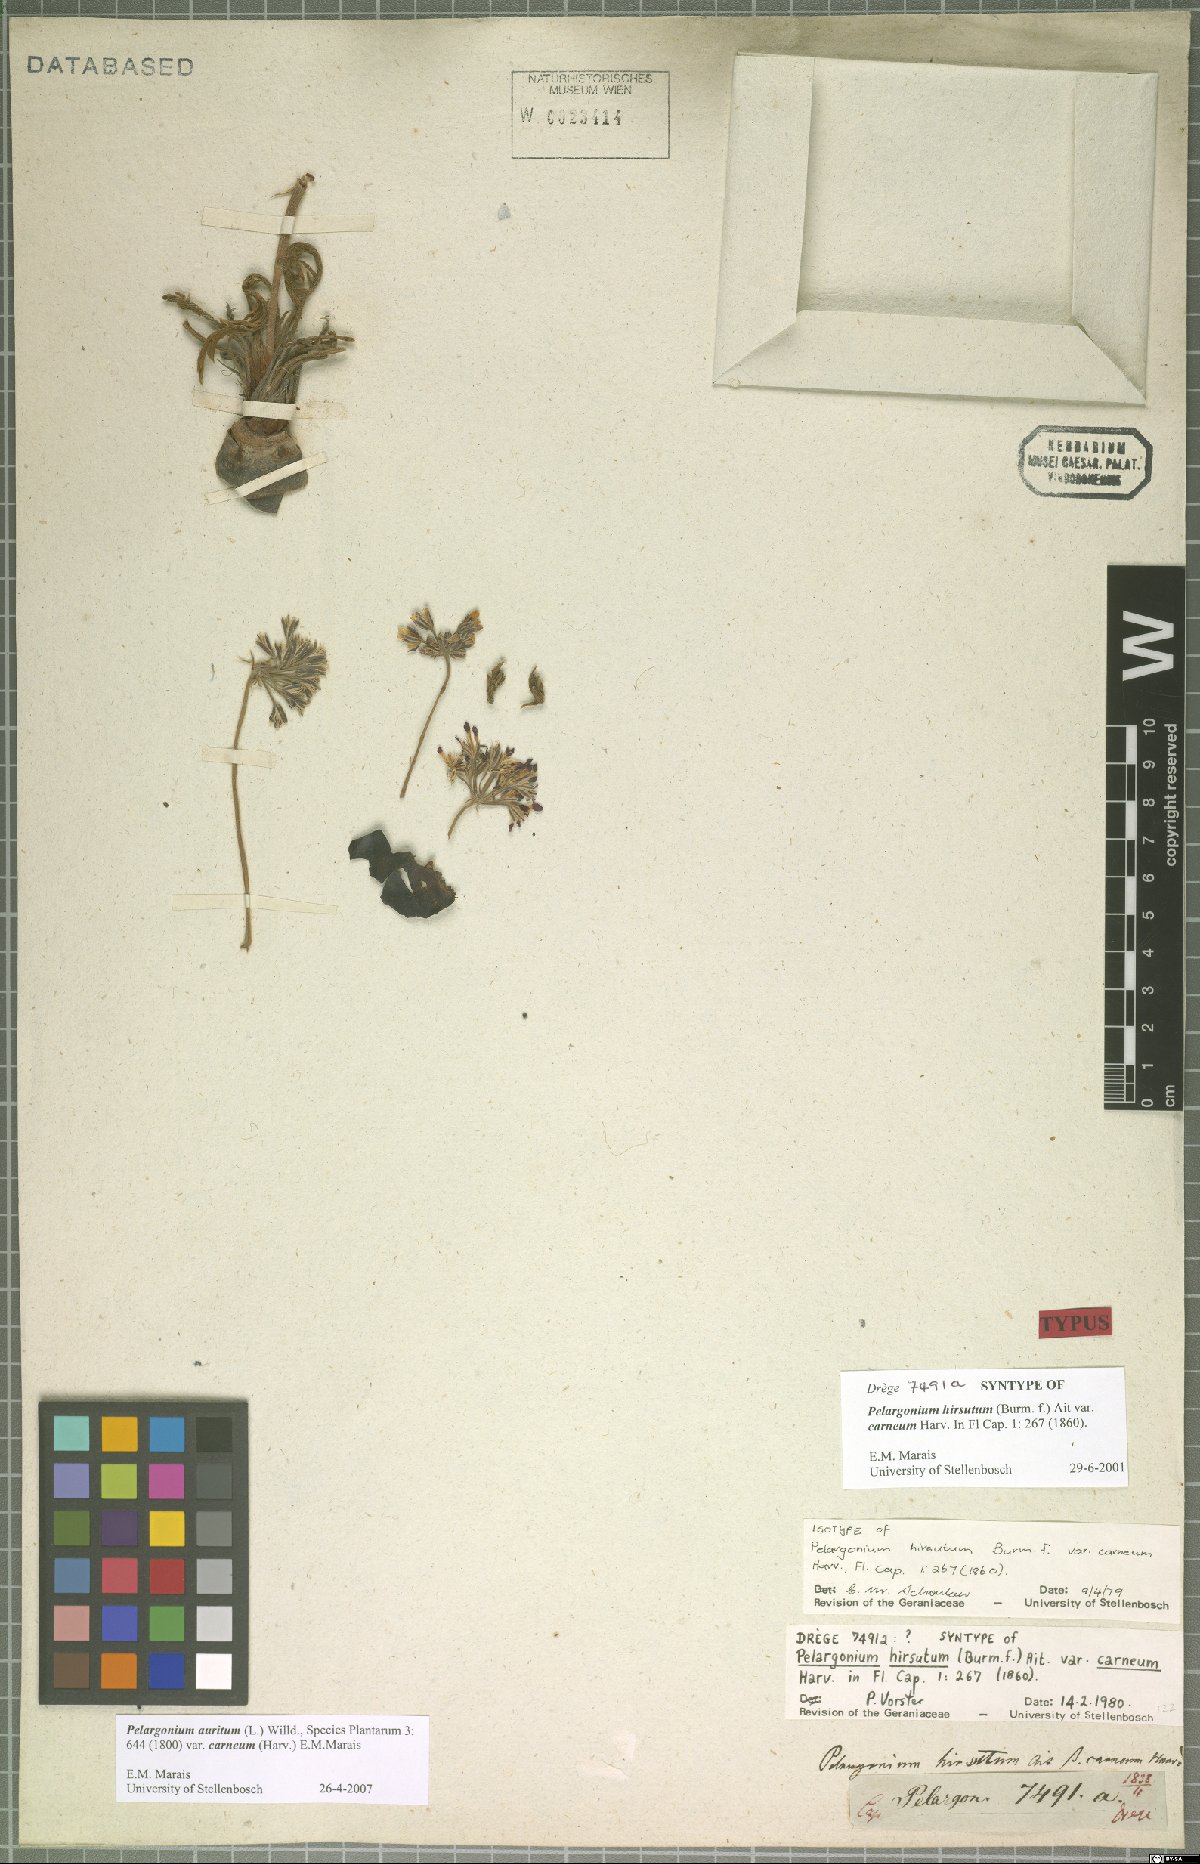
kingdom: Plantae
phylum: Tracheophyta
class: Magnoliopsida
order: Geraniales
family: Geraniaceae
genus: Pelargonium
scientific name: Pelargonium auritum
